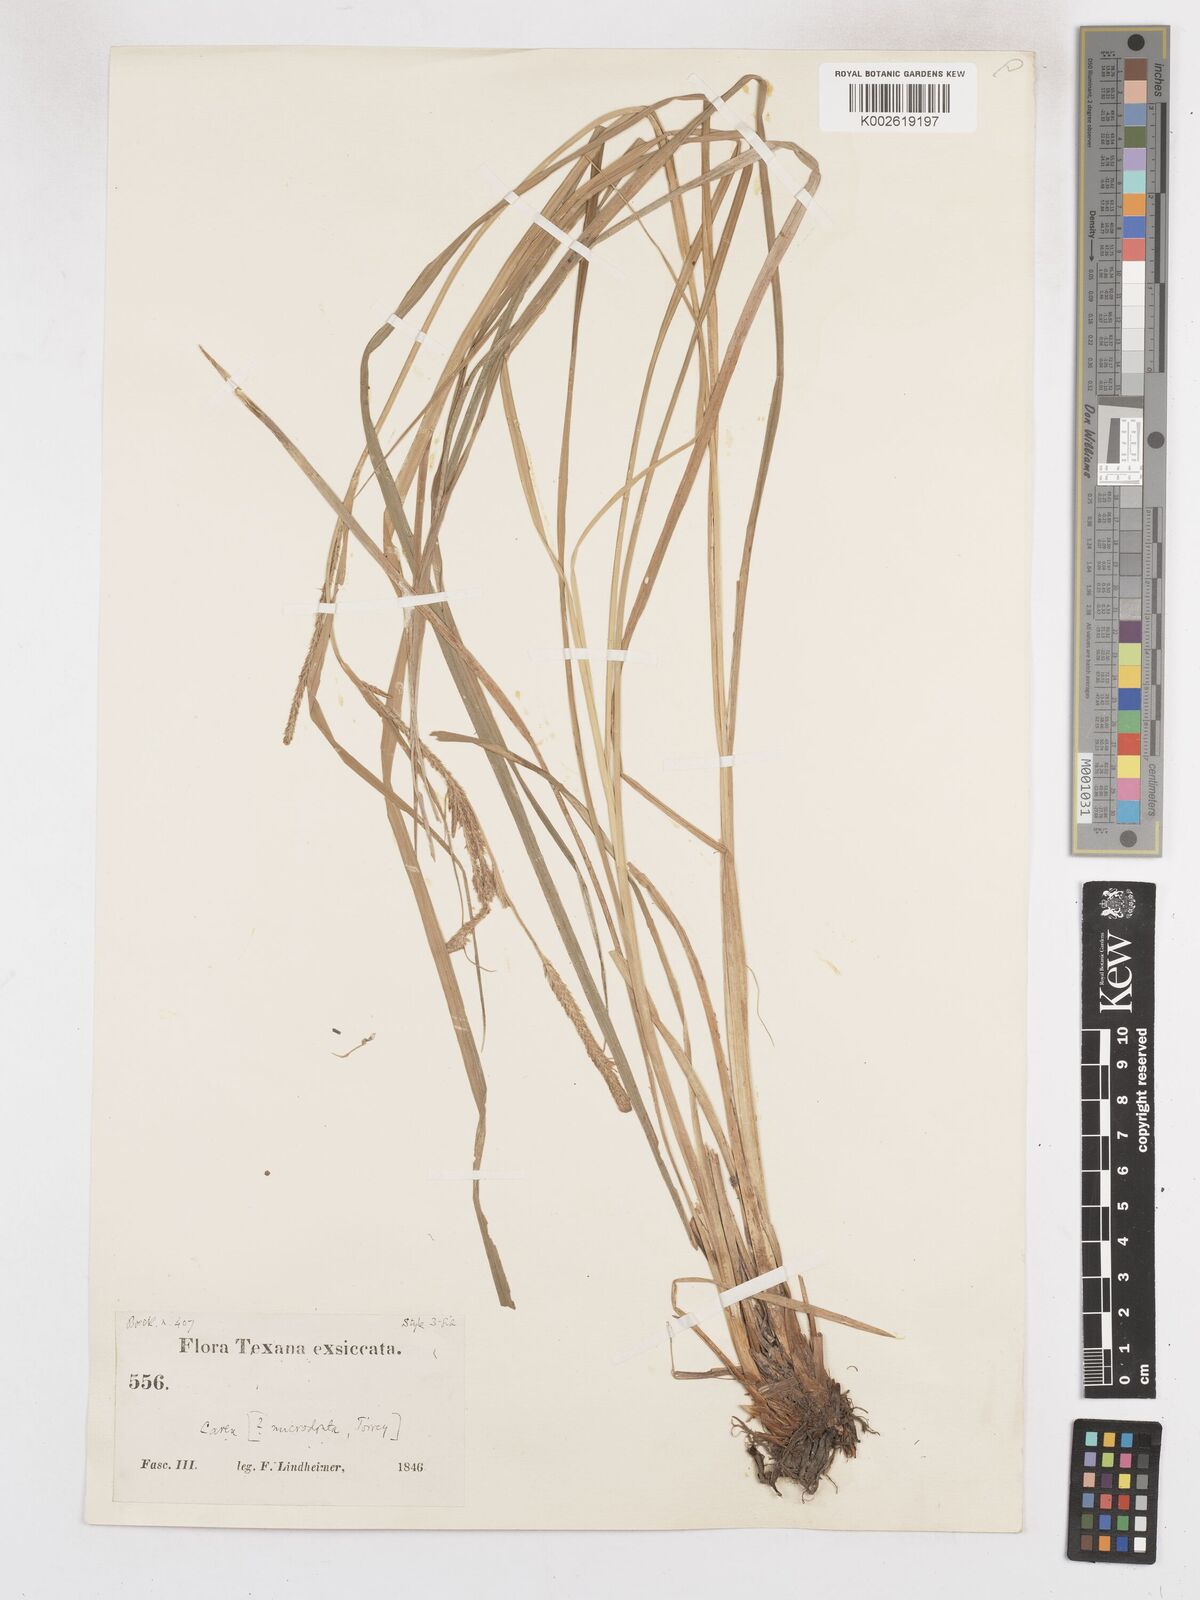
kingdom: Plantae
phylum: Tracheophyta
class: Liliopsida
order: Poales
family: Cyperaceae
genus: Carex
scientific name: Carex microdonta
